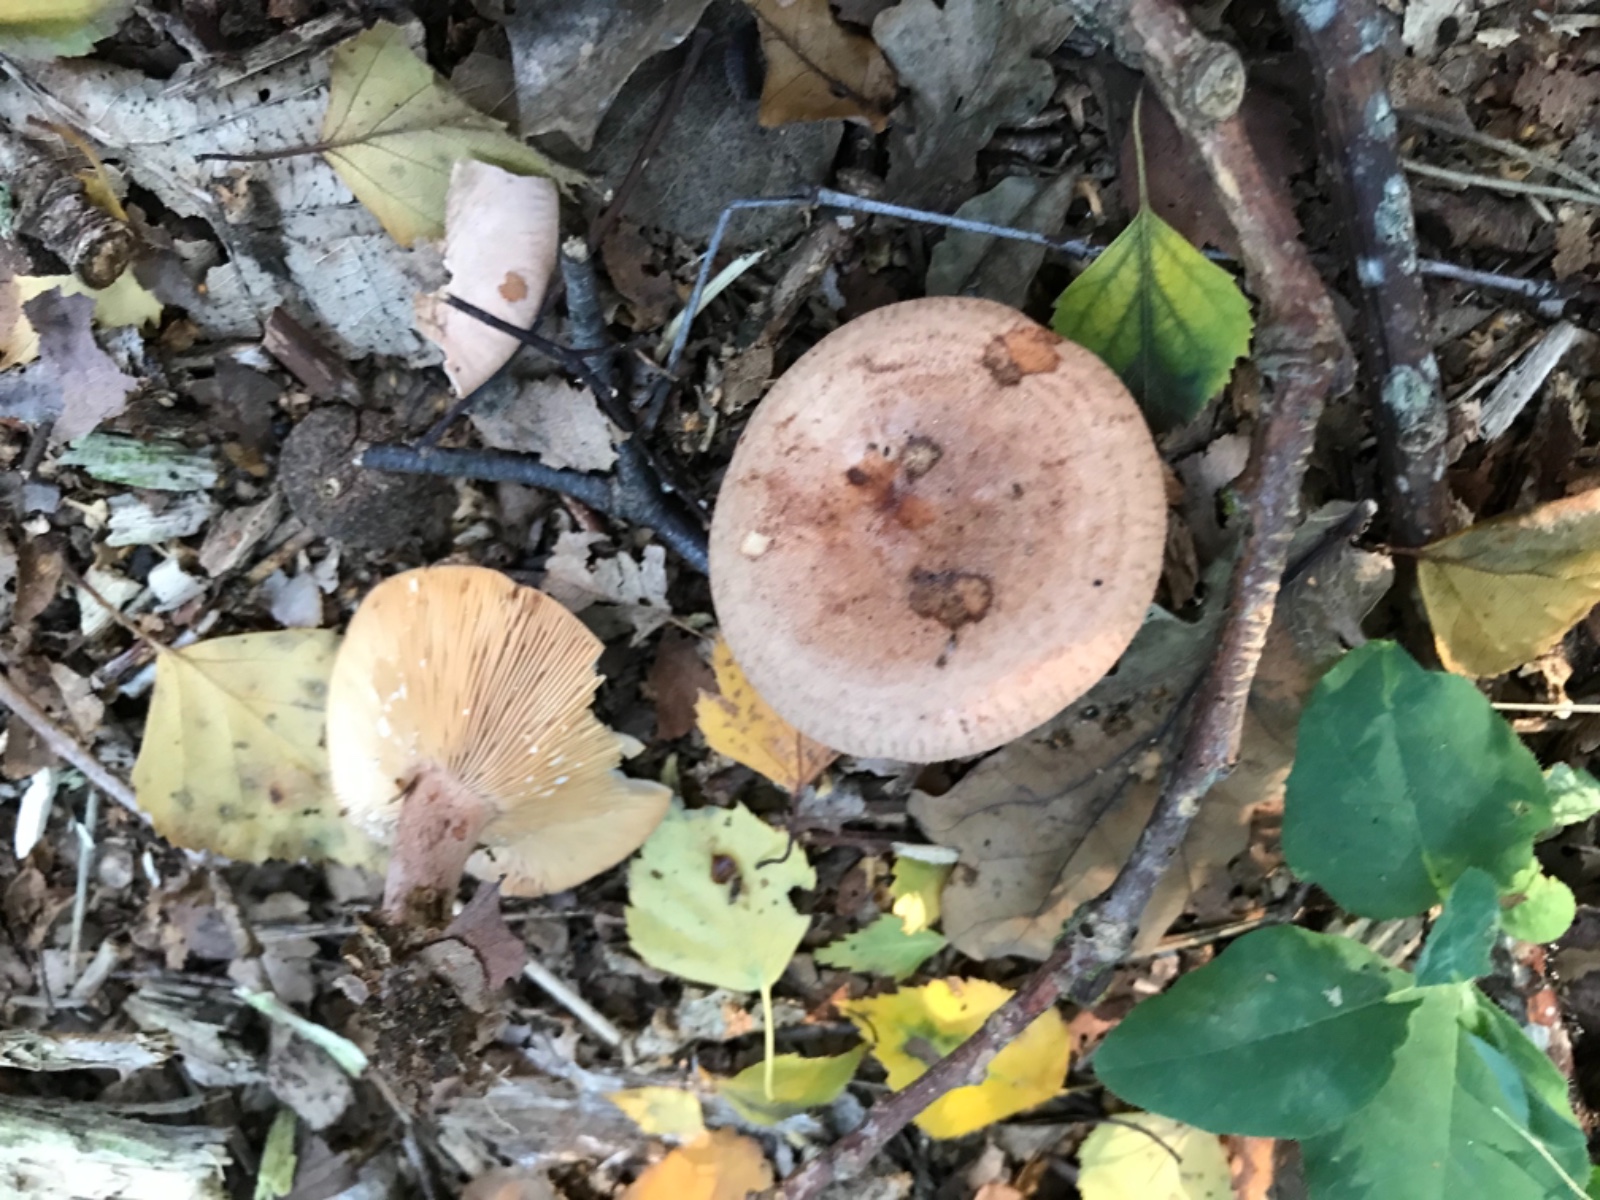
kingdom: Fungi
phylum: Basidiomycota
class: Agaricomycetes
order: Russulales
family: Russulaceae
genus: Lactarius
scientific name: Lactarius quietus
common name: ege-mælkehat
